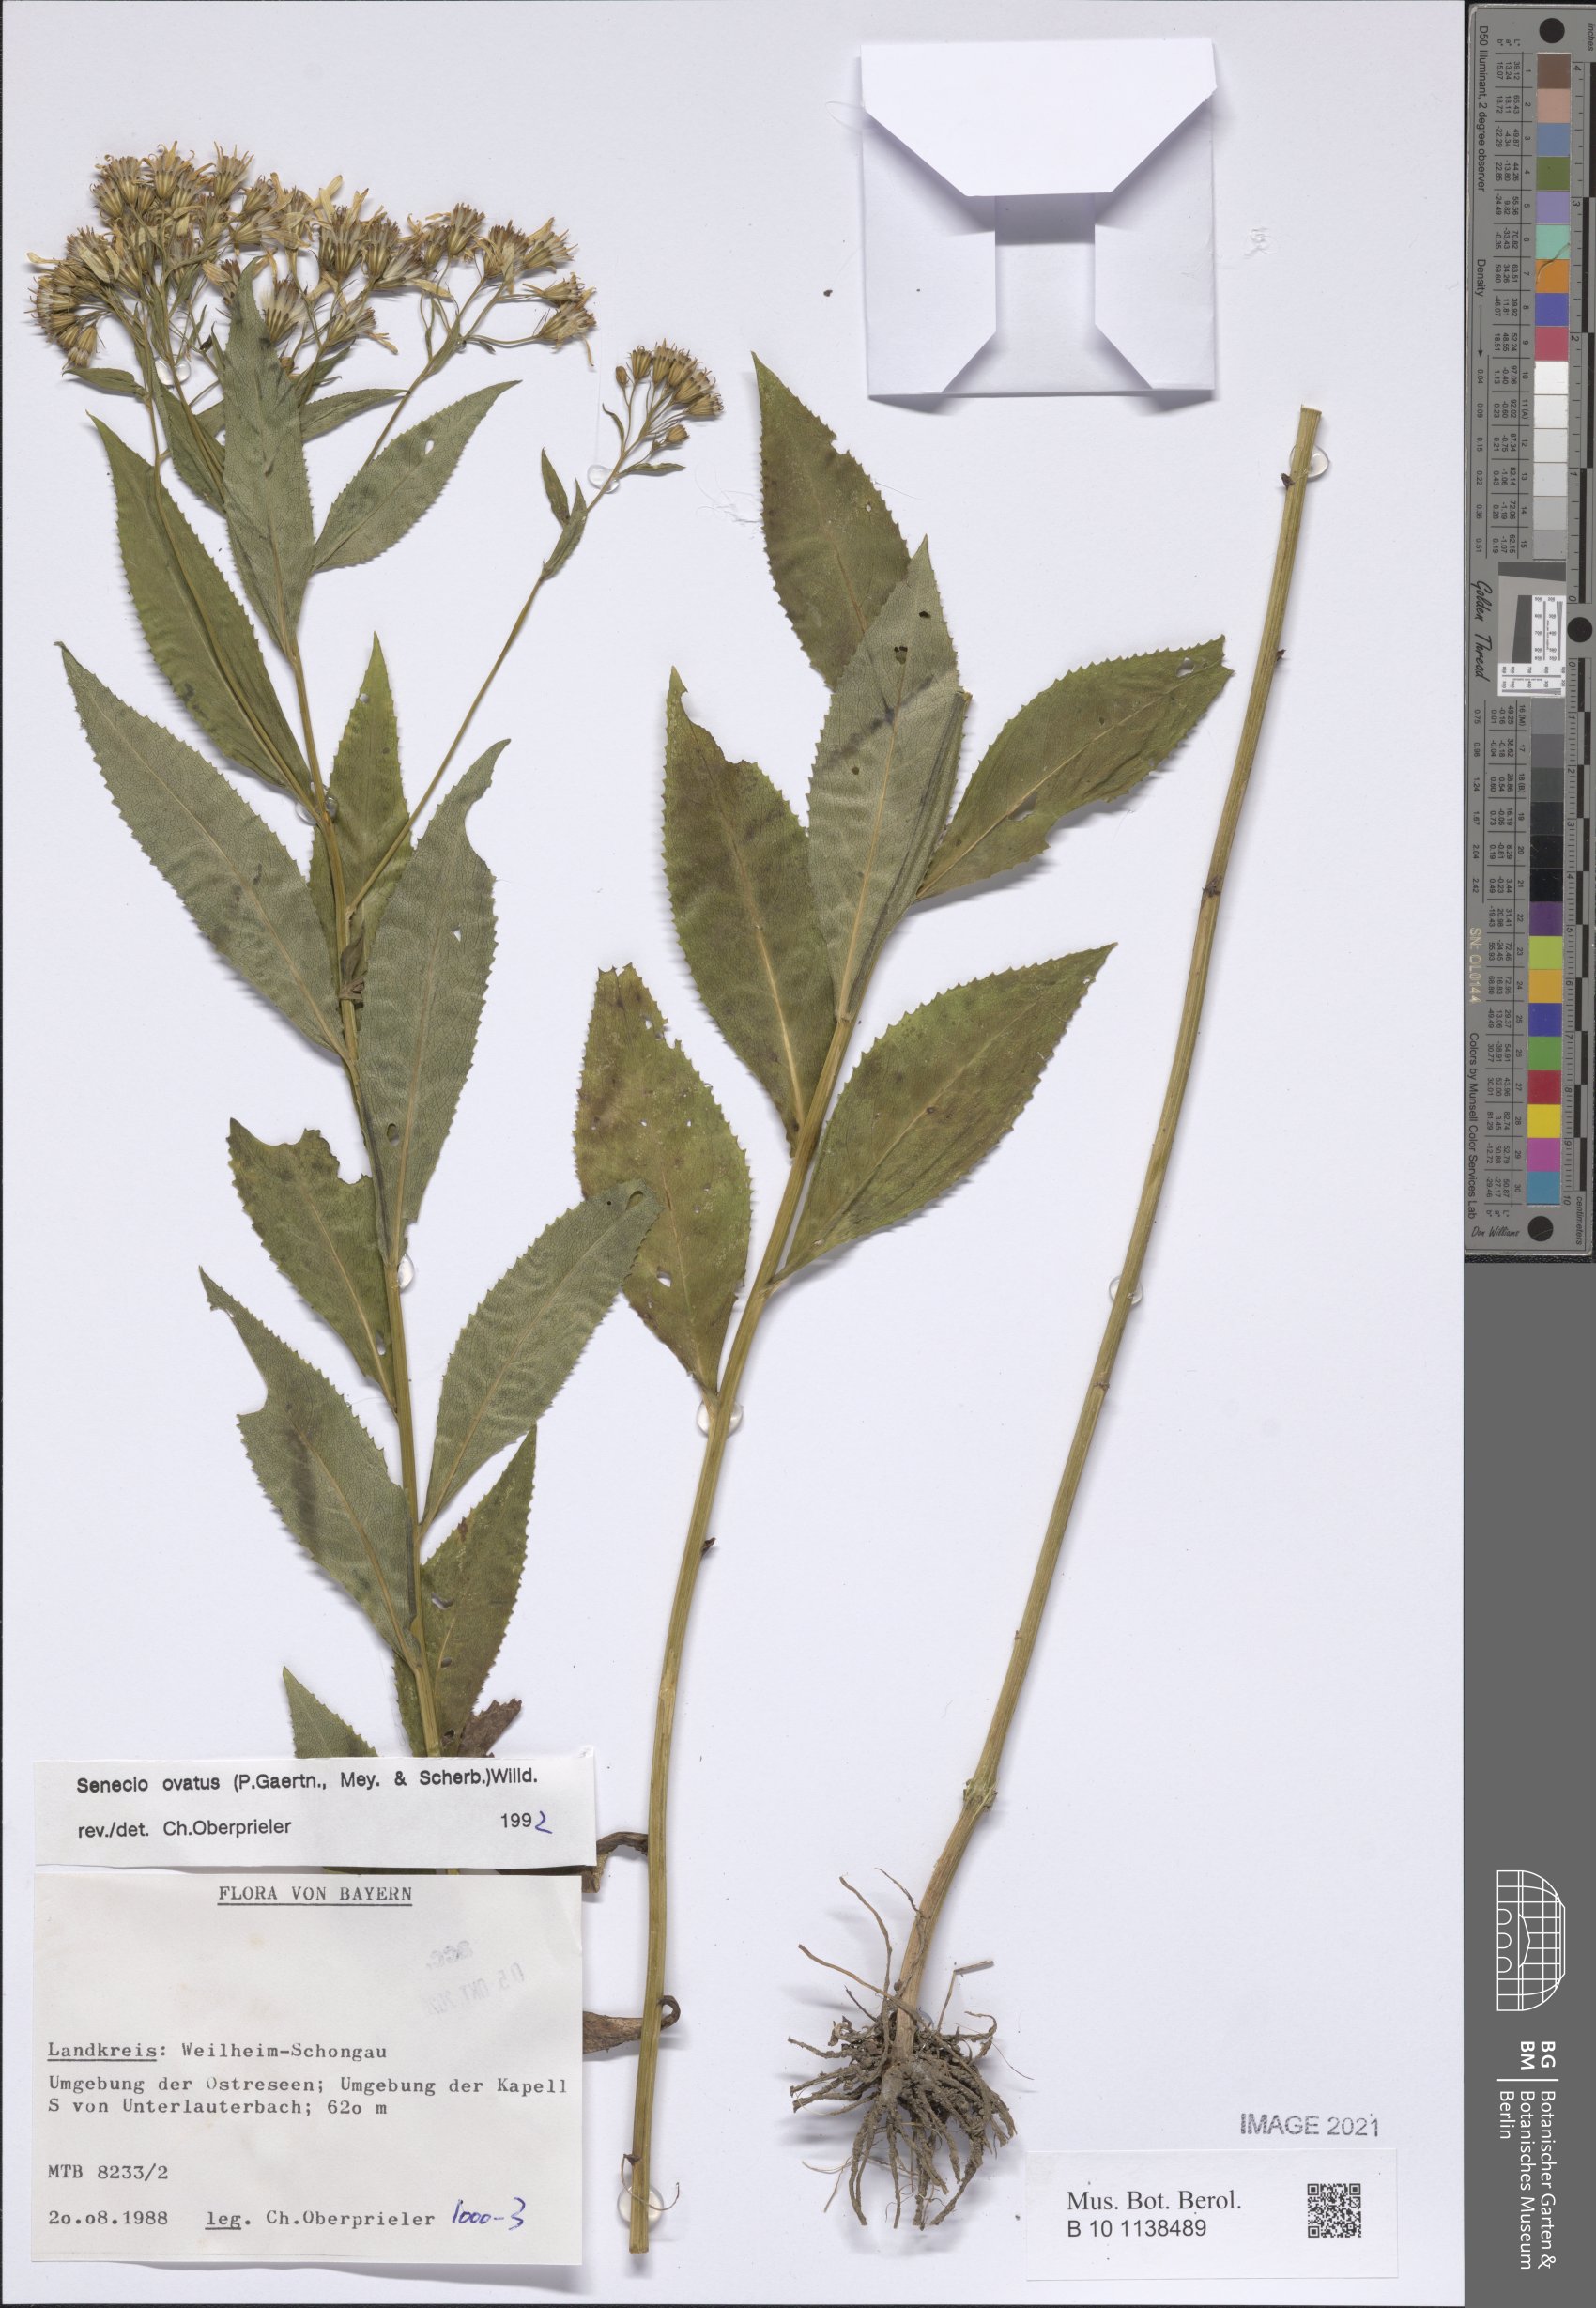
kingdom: Plantae
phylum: Tracheophyta
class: Magnoliopsida
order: Asterales
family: Asteraceae
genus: Senecio
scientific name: Senecio ovatus
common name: Wood ragwort
